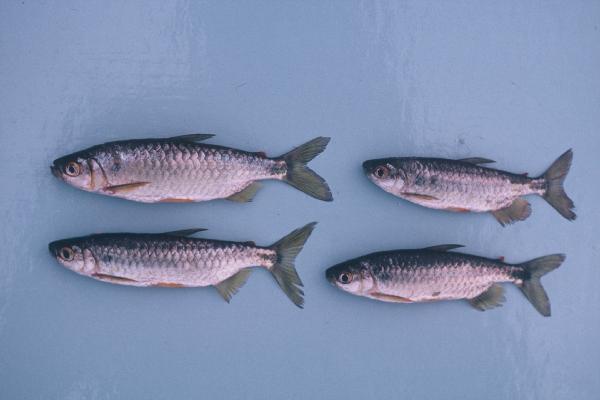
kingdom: Animalia
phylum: Chordata
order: Characiformes
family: Alestidae
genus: Brycinus
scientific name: Brycinus imberi
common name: Imberi
